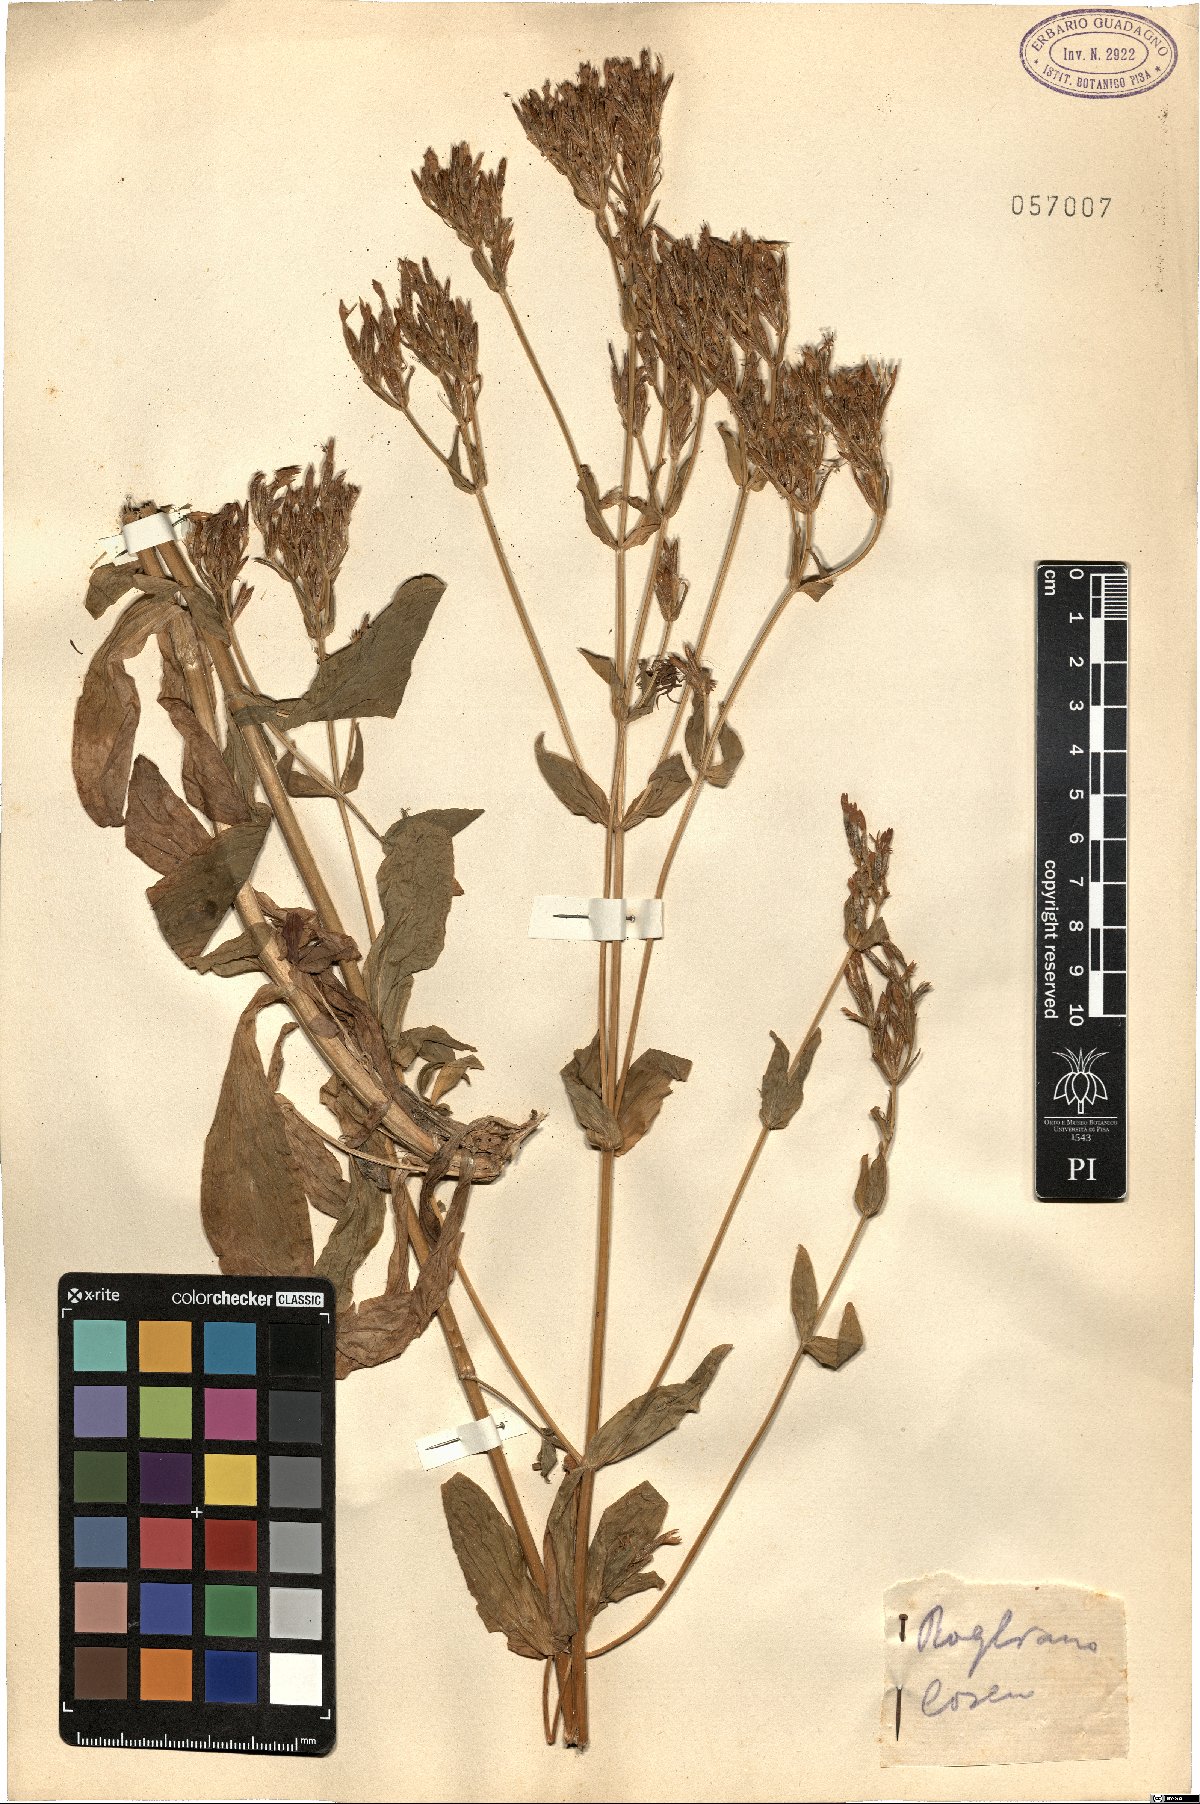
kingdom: Plantae
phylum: Tracheophyta
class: Magnoliopsida
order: Gentianales
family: Gentianaceae
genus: Erythraea
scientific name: Erythraea
